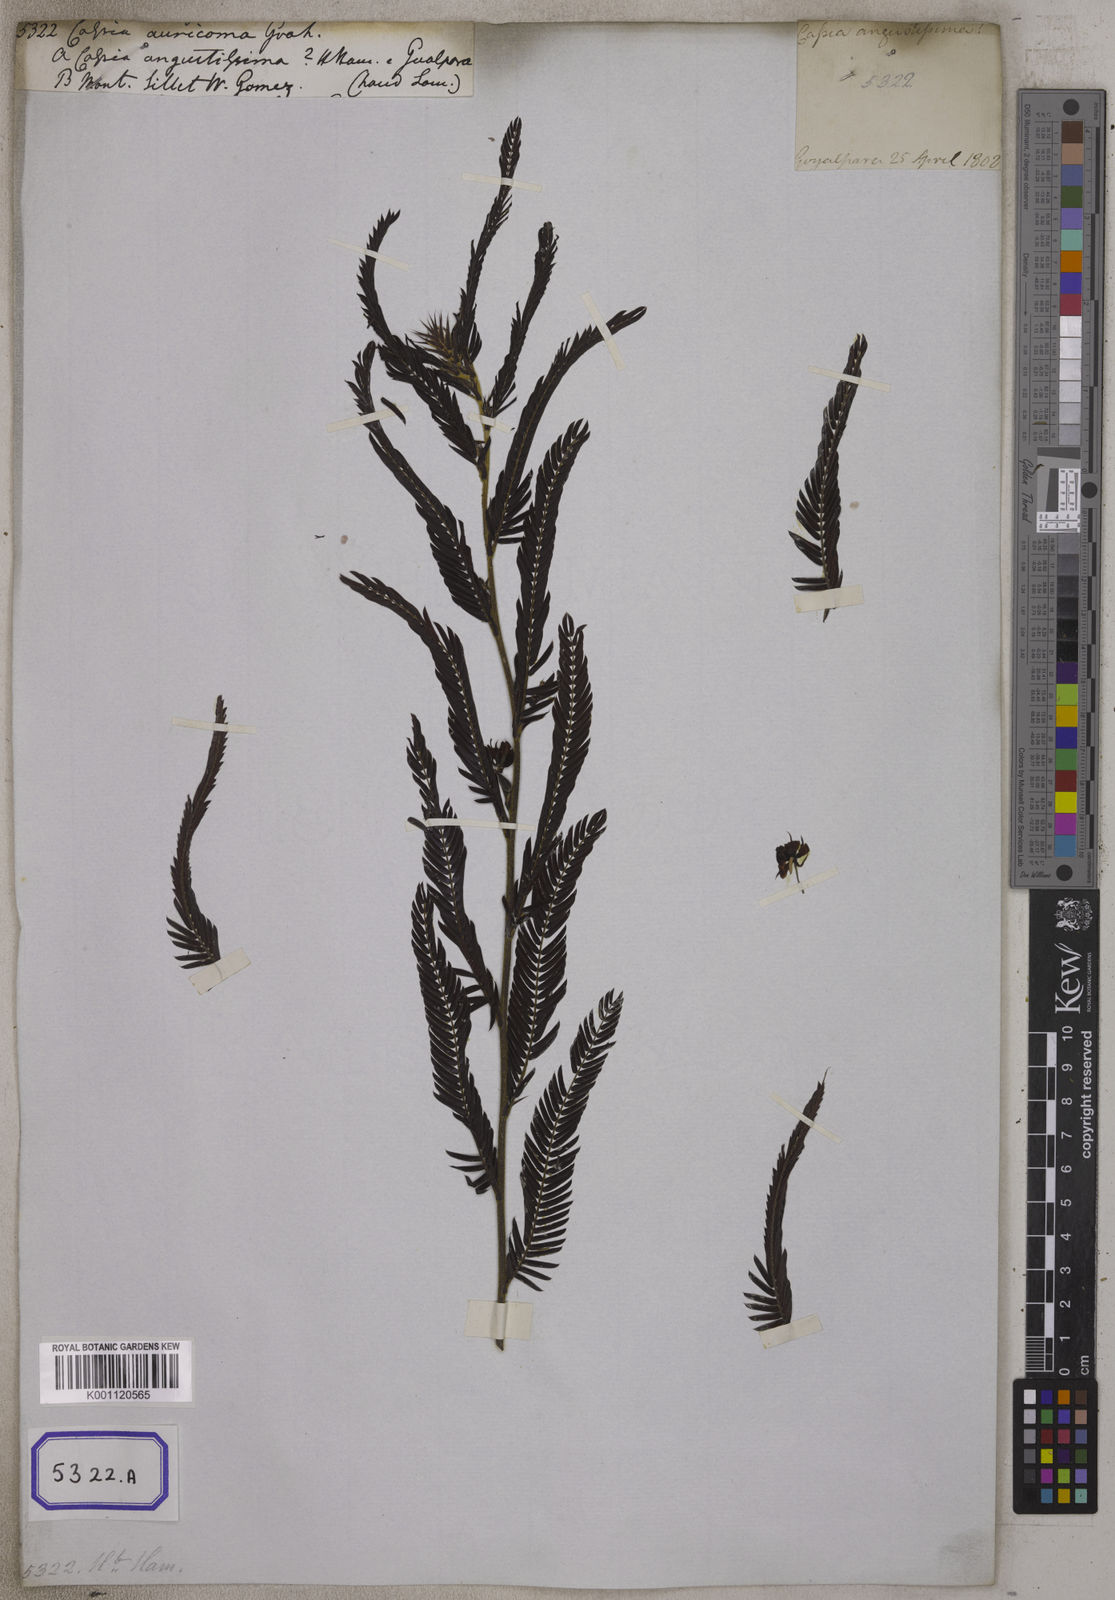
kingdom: Plantae
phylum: Tracheophyta
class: Magnoliopsida
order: Fabales
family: Fabaceae
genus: Cassia
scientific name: Cassia
